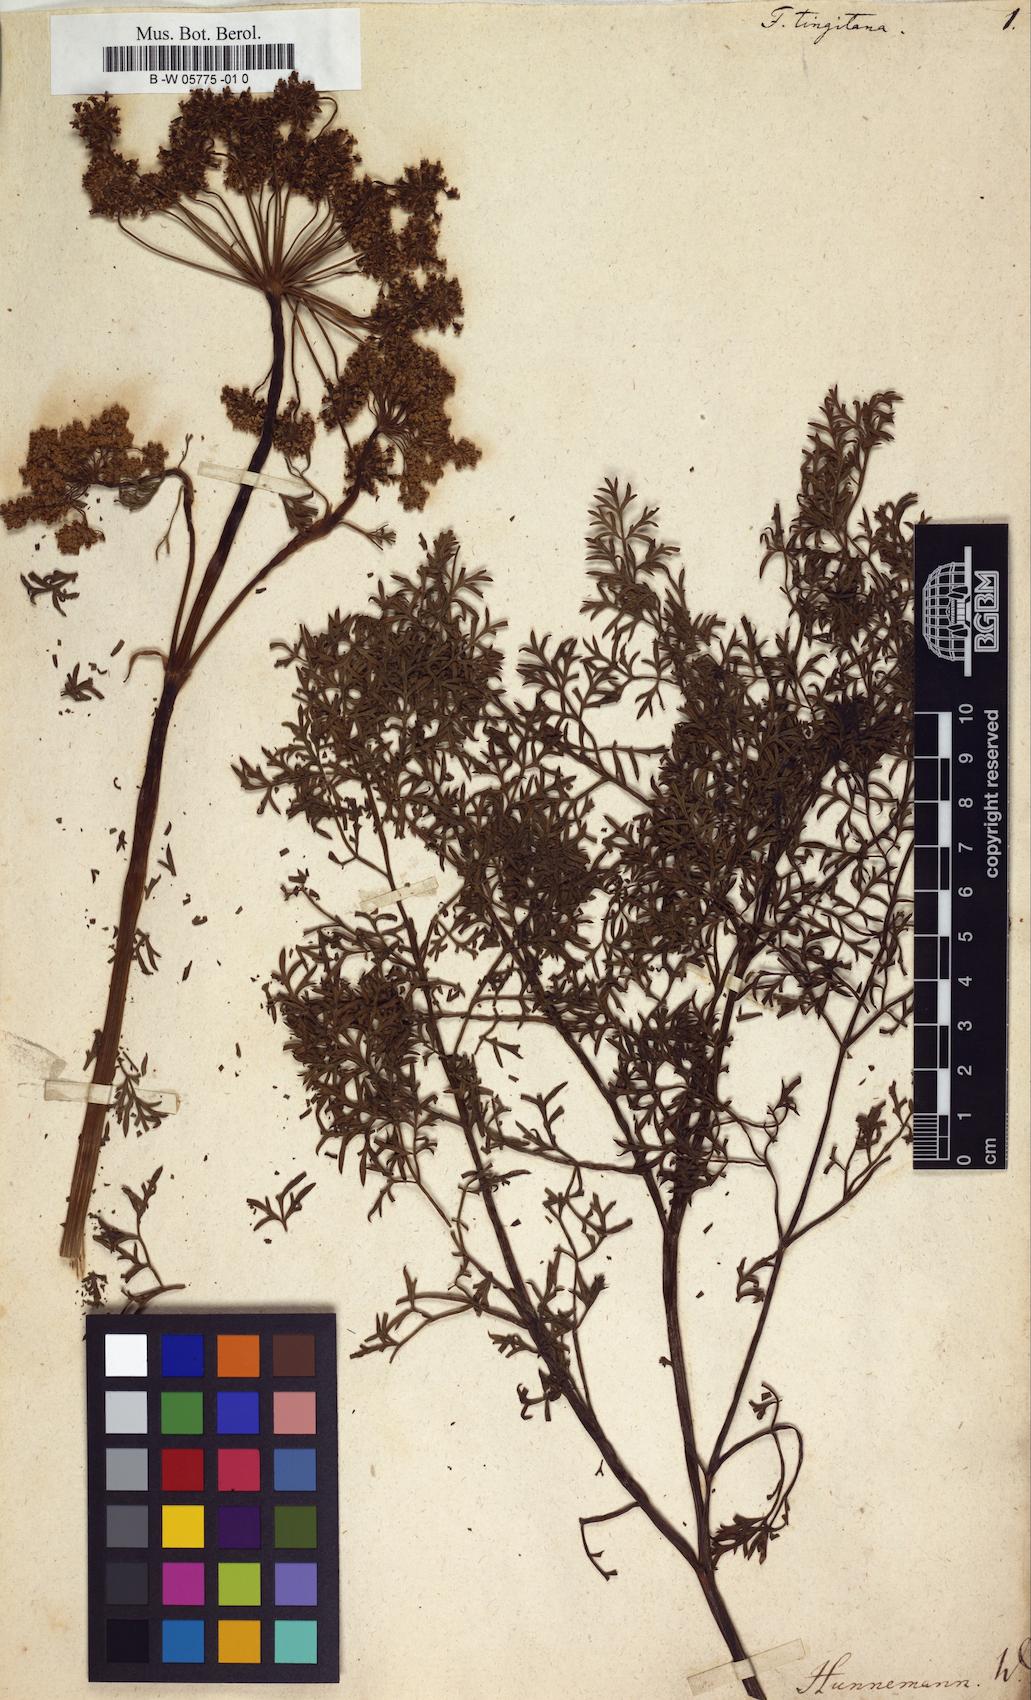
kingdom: Plantae
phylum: Tracheophyta
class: Magnoliopsida
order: Apiales
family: Apiaceae
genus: Ferula
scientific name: Ferula tingitana
